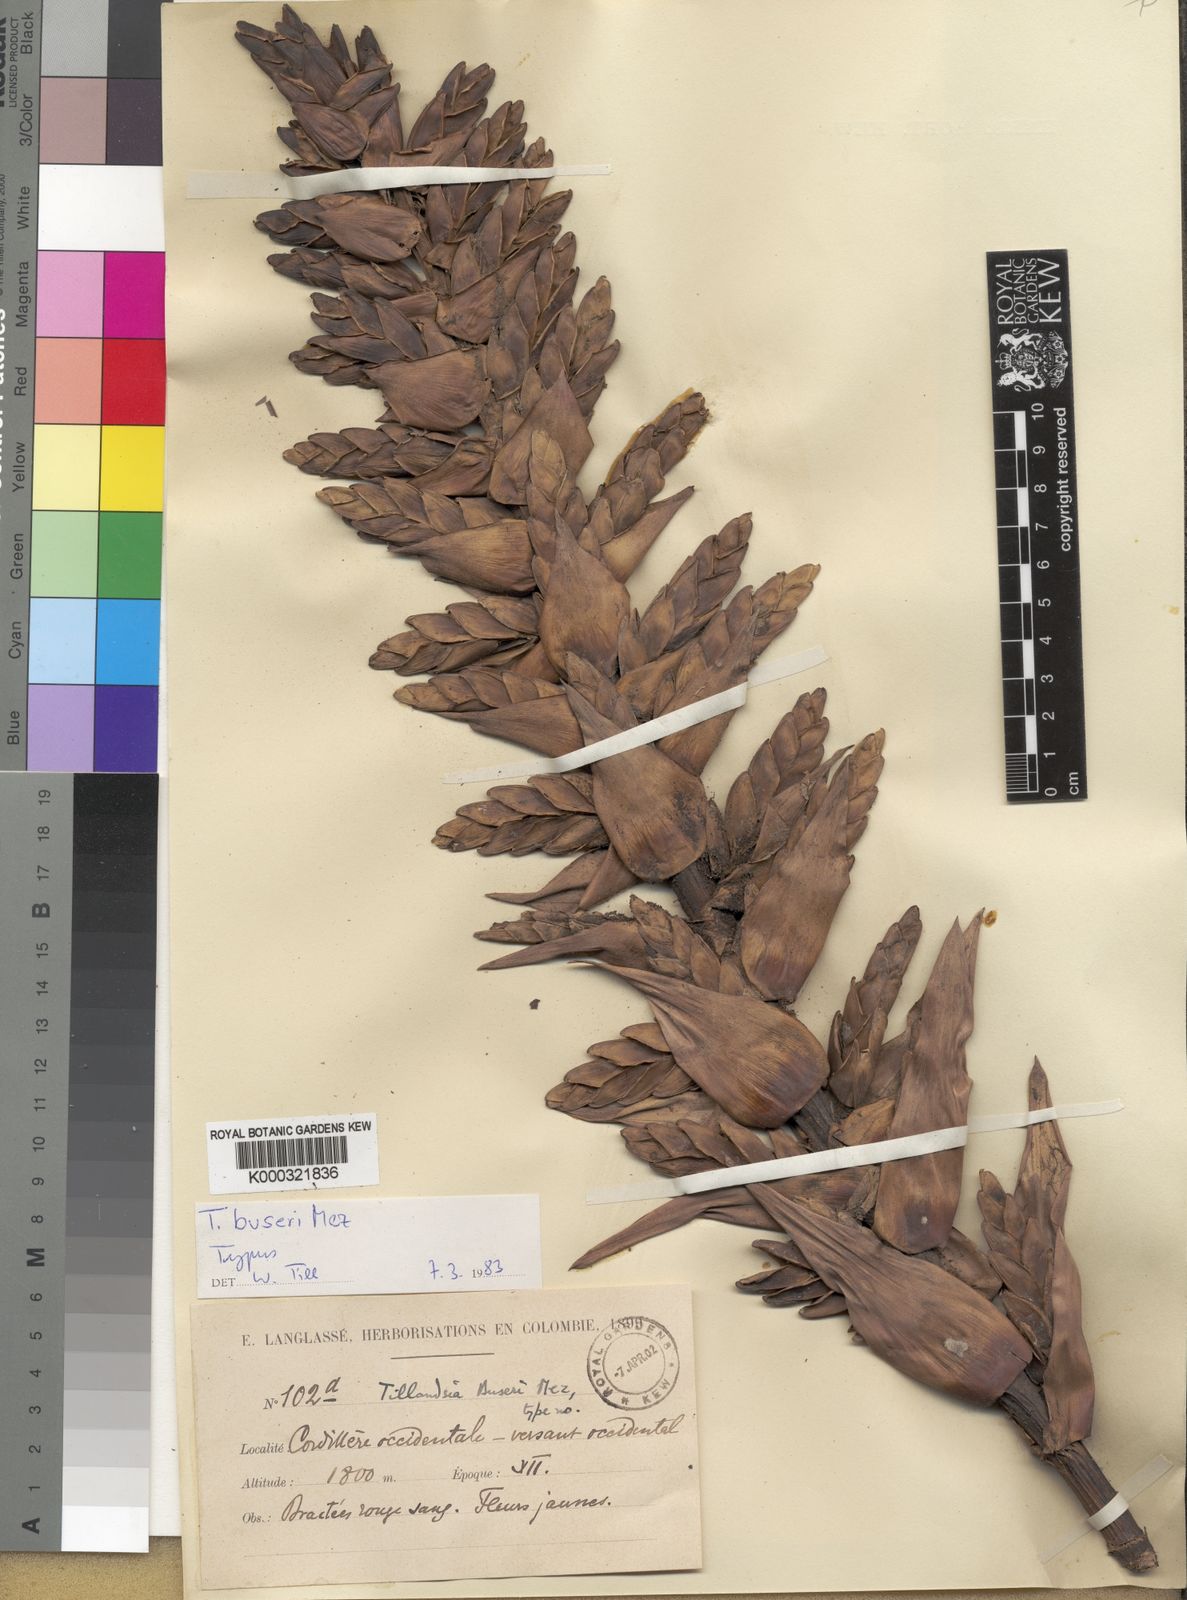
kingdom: Plantae
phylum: Tracheophyta
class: Liliopsida
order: Poales
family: Bromeliaceae
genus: Tillandsia
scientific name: Tillandsia buseri
